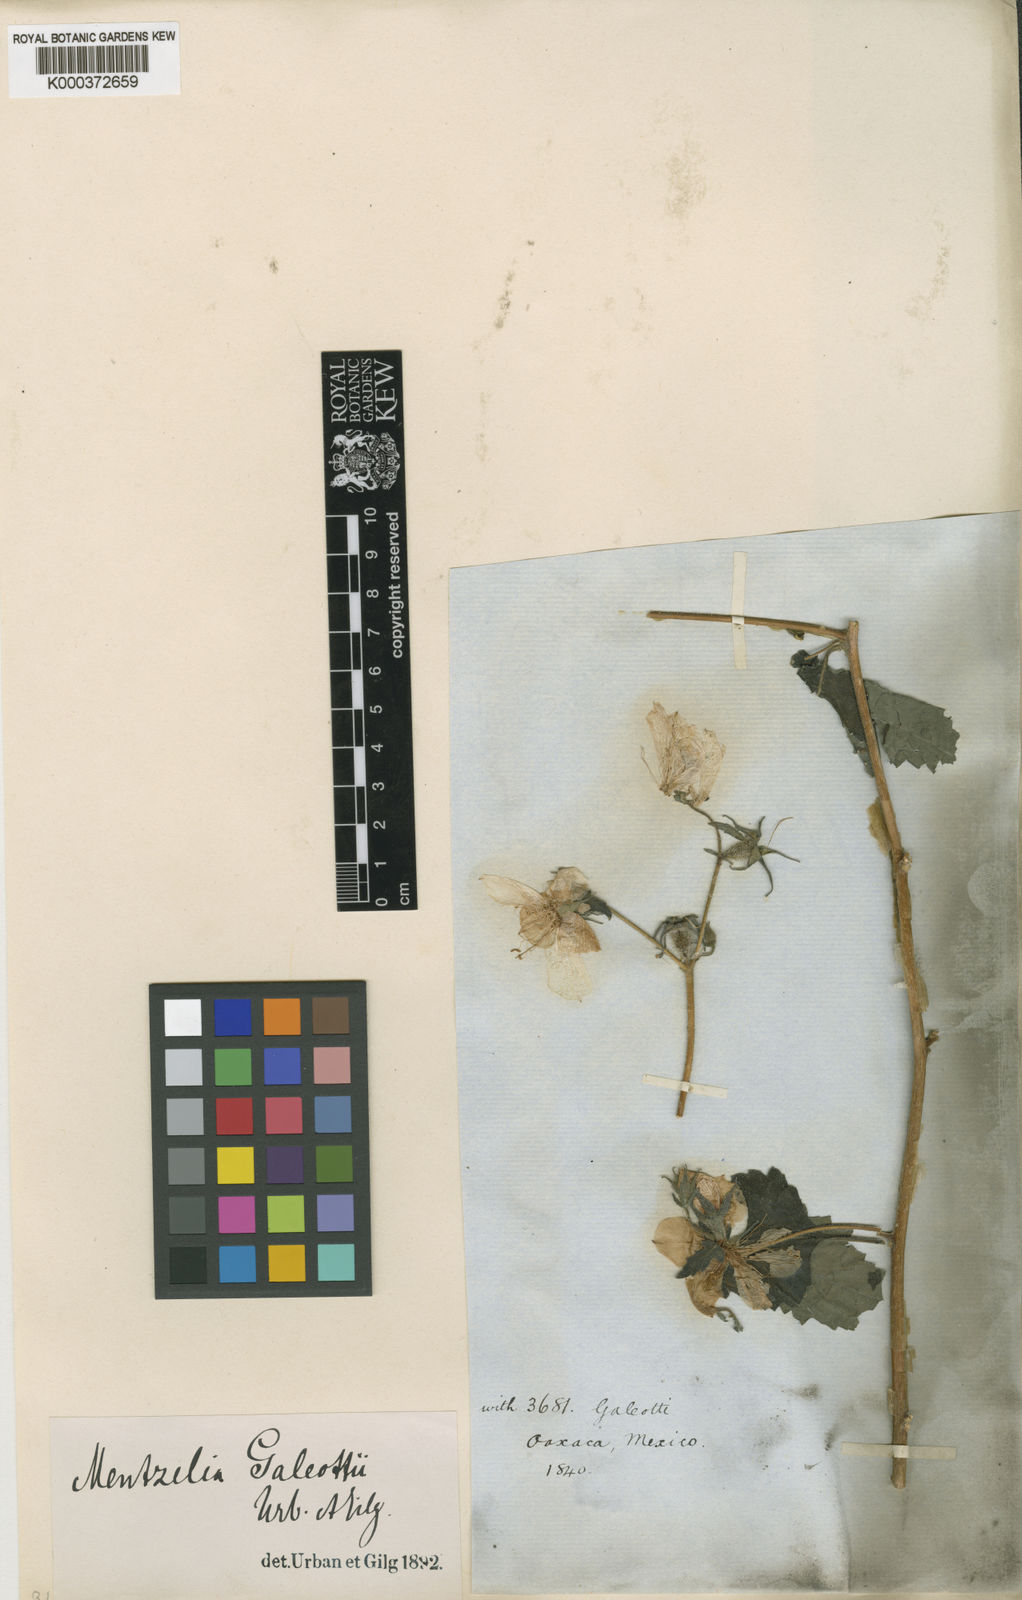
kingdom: Plantae
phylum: Tracheophyta
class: Magnoliopsida
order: Cornales
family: Loasaceae
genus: Mentzelia
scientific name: Mentzelia hispida
